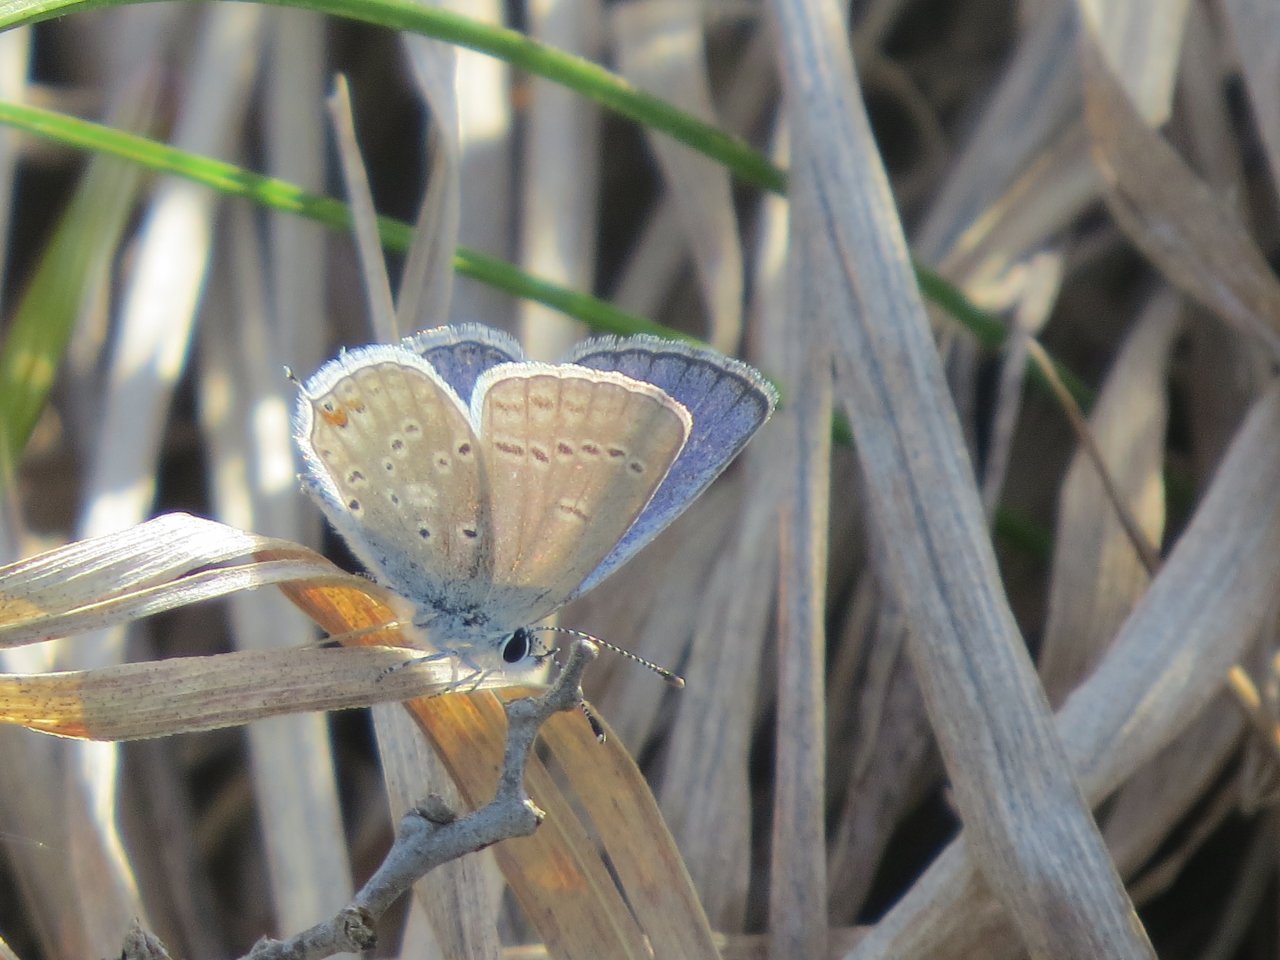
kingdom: Animalia
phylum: Arthropoda
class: Insecta
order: Lepidoptera
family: Lycaenidae
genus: Elkalyce
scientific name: Elkalyce amyntula
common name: Western Tailed-Blue
